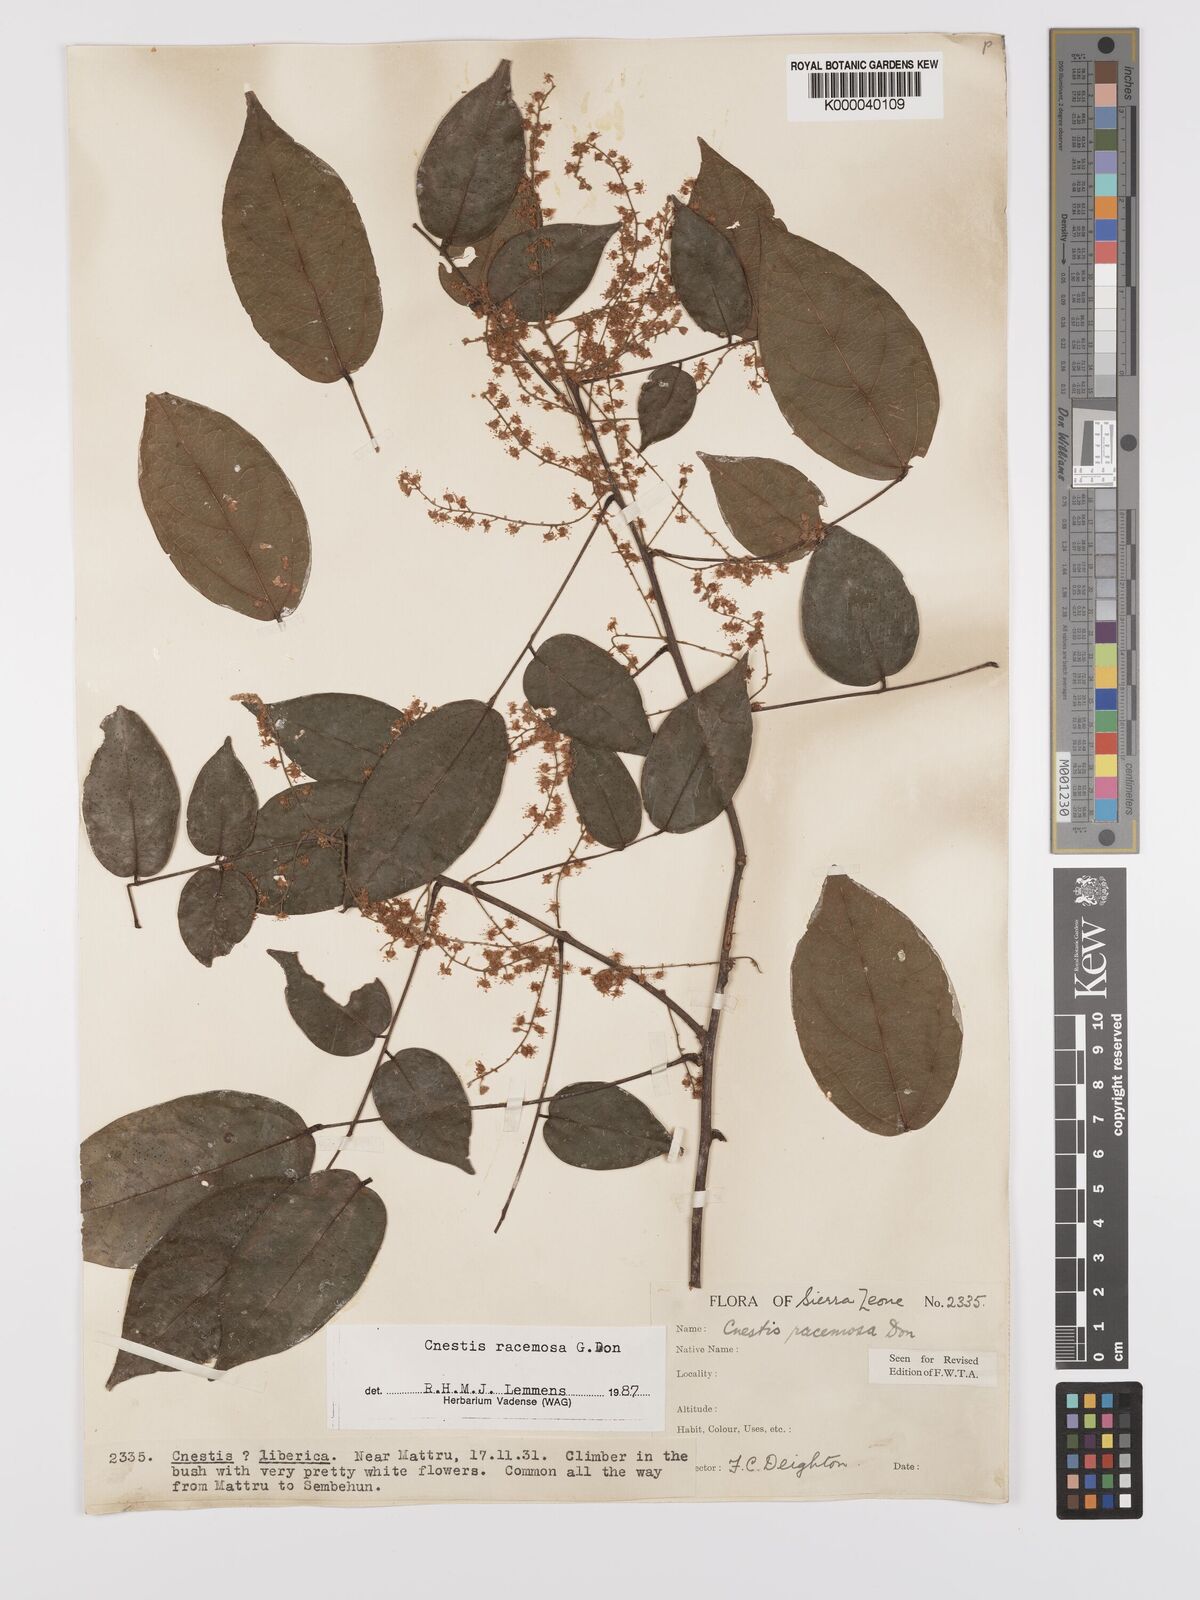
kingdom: Plantae
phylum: Tracheophyta
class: Magnoliopsida
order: Oxalidales
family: Connaraceae
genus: Cnestis
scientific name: Cnestis racemosa
